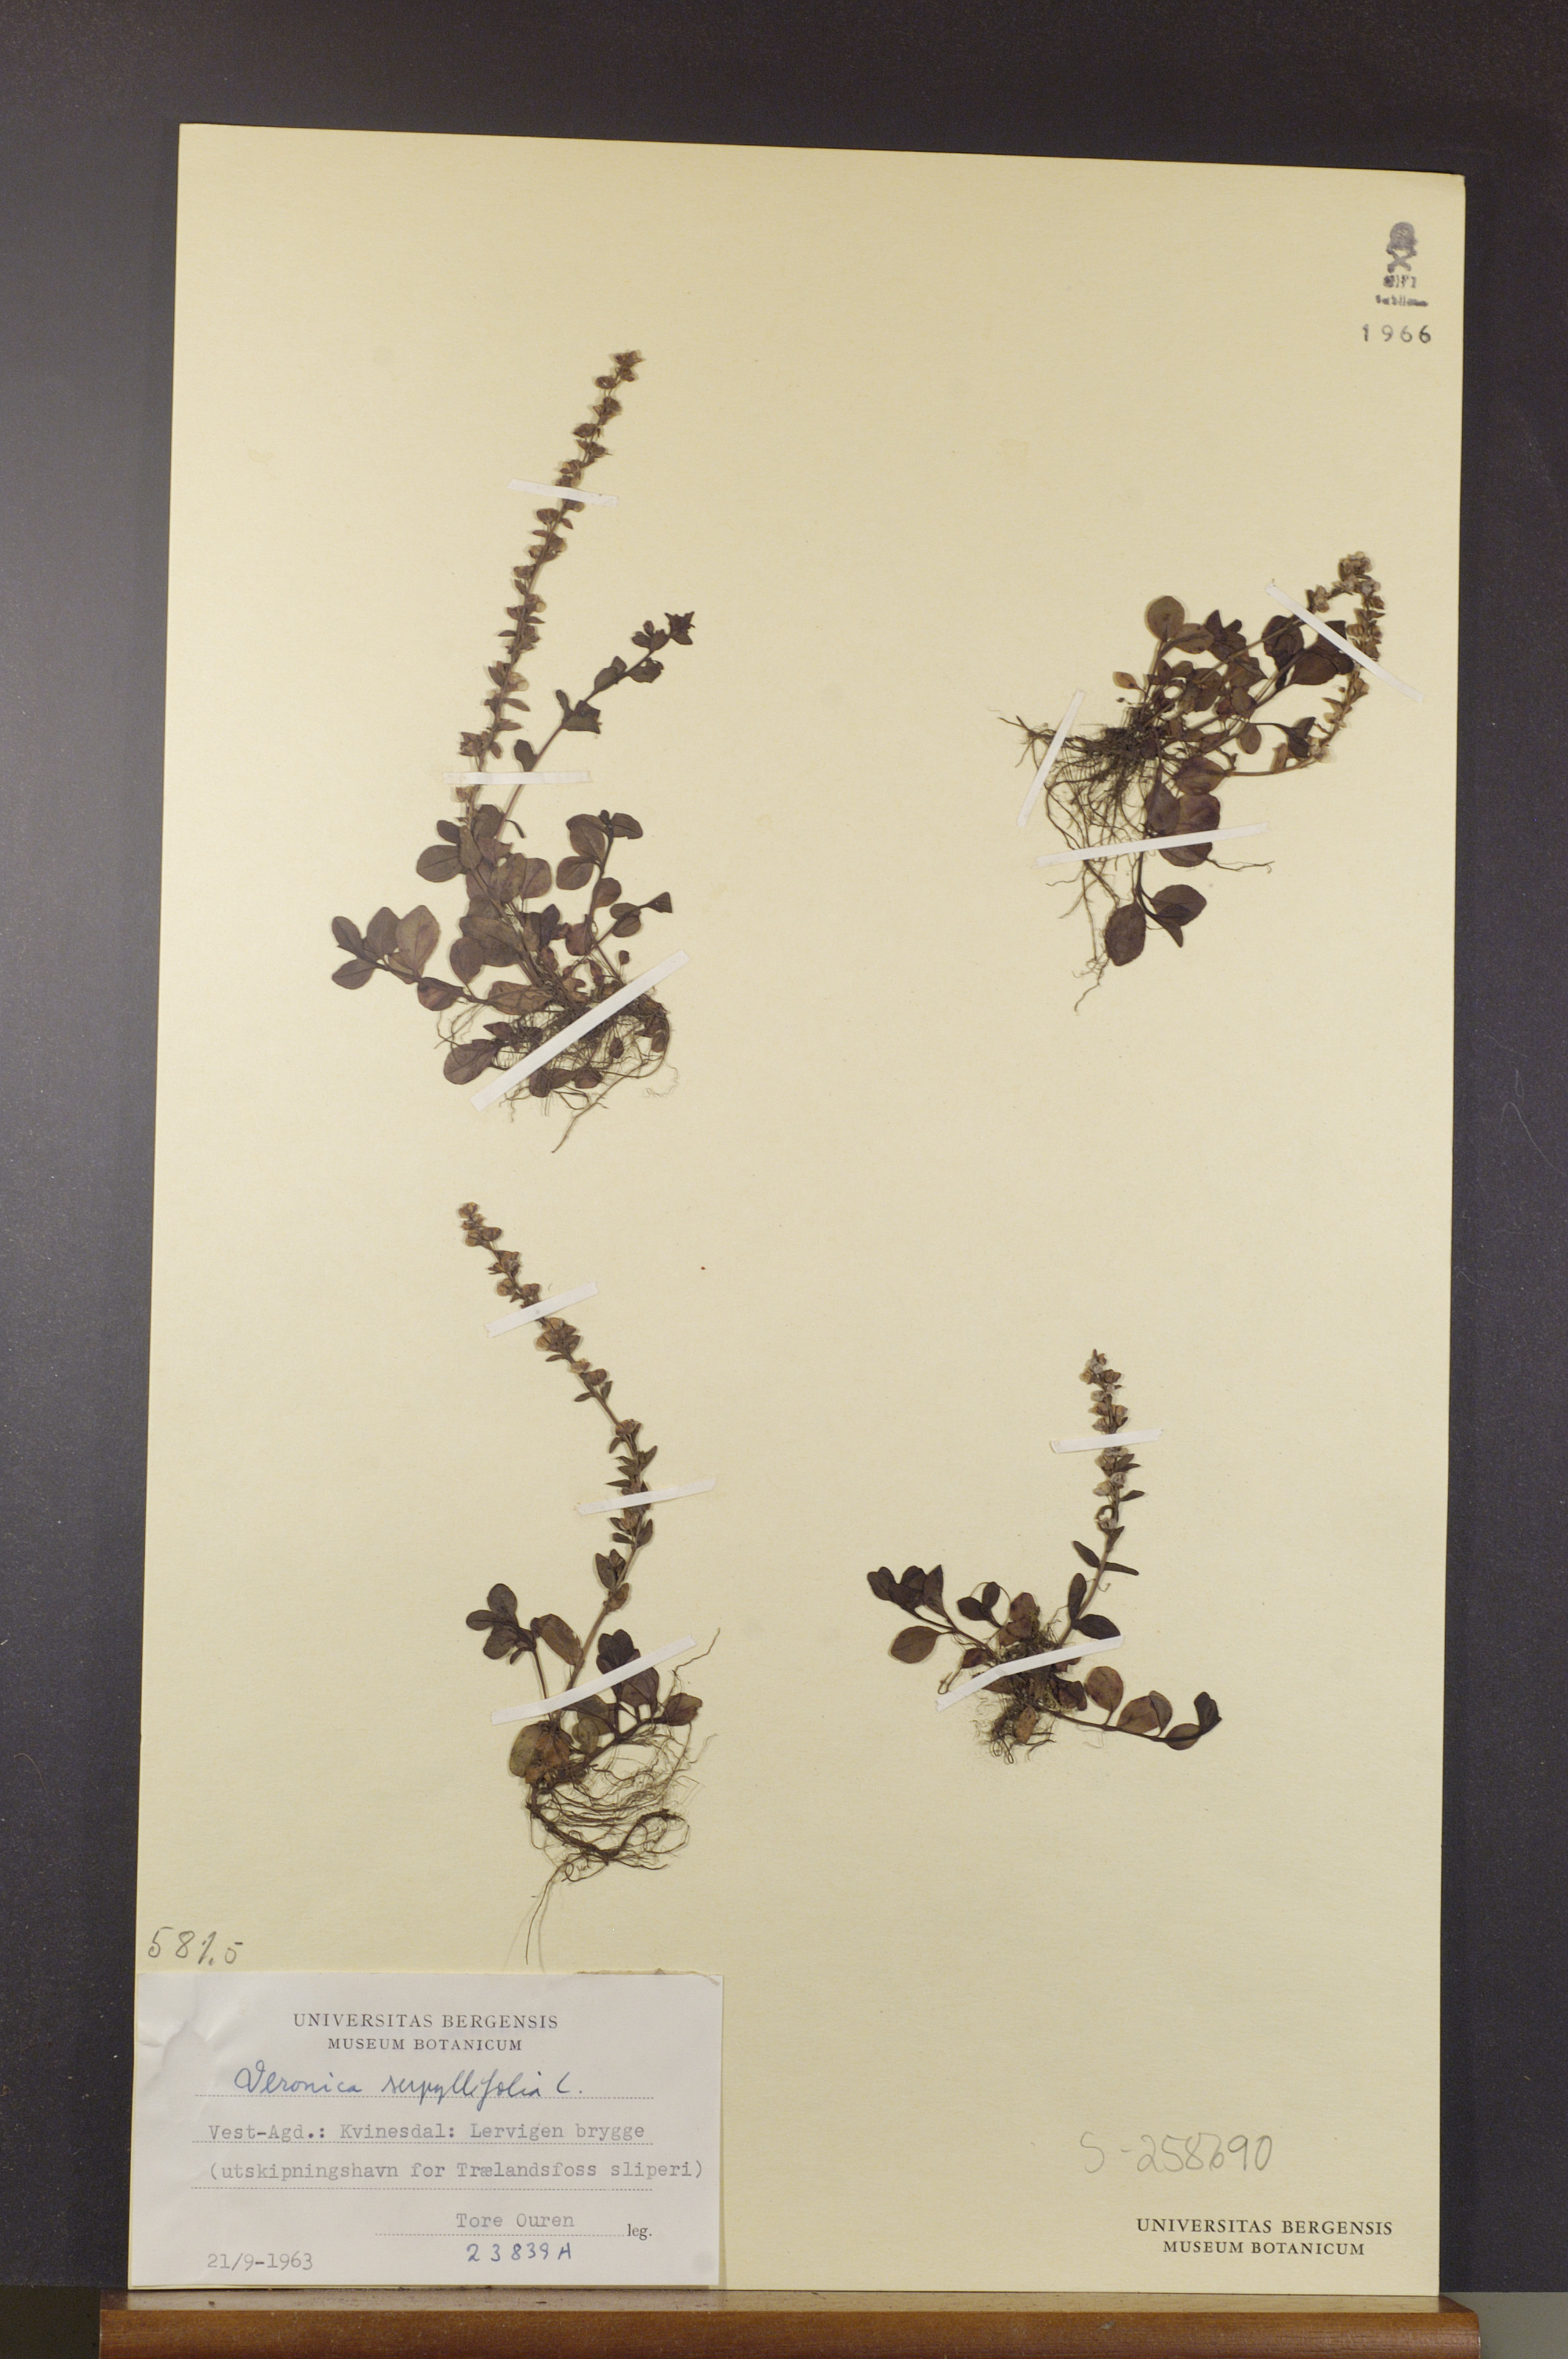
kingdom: Plantae
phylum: Tracheophyta
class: Magnoliopsida
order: Lamiales
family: Plantaginaceae
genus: Veronica
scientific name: Veronica serpyllifolia
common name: Thyme-leaved speedwell
